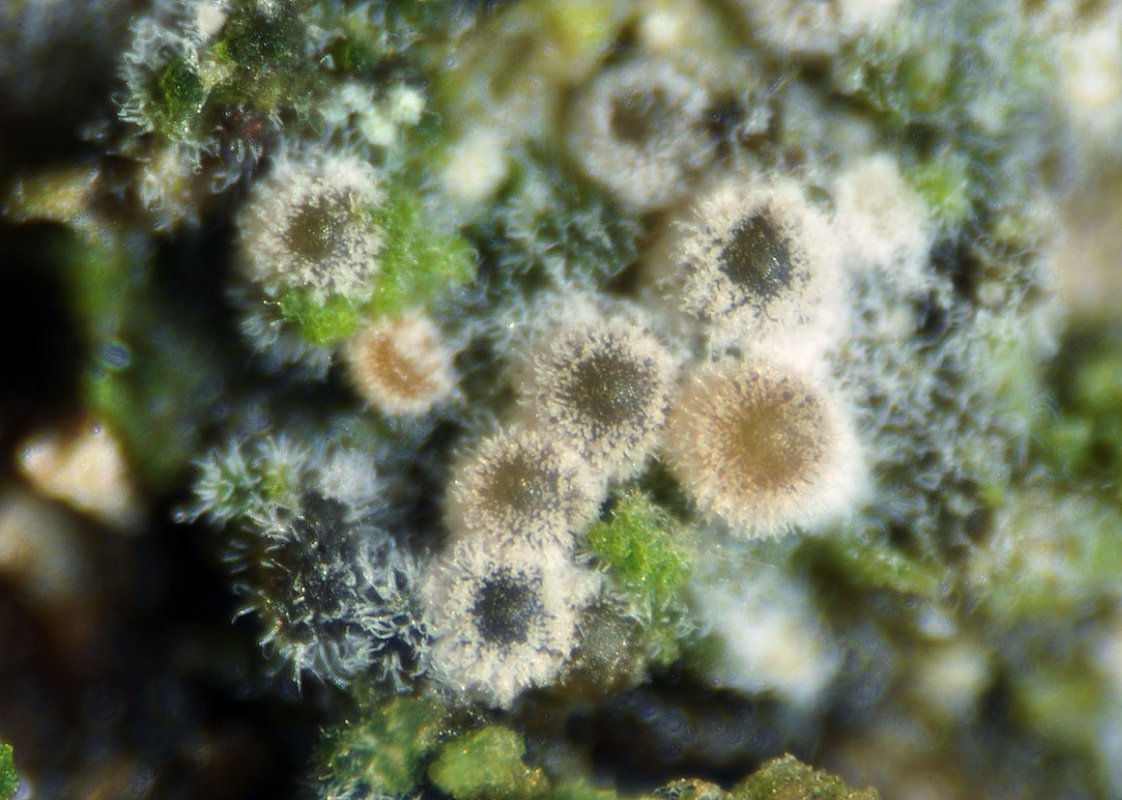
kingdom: Fungi
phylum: Ascomycota
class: Sordariomycetes
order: Hypocreales
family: Bionectriaceae
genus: Nectriopsis
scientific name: Nectriopsis oropensoides
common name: mørkøjet snyltespind
